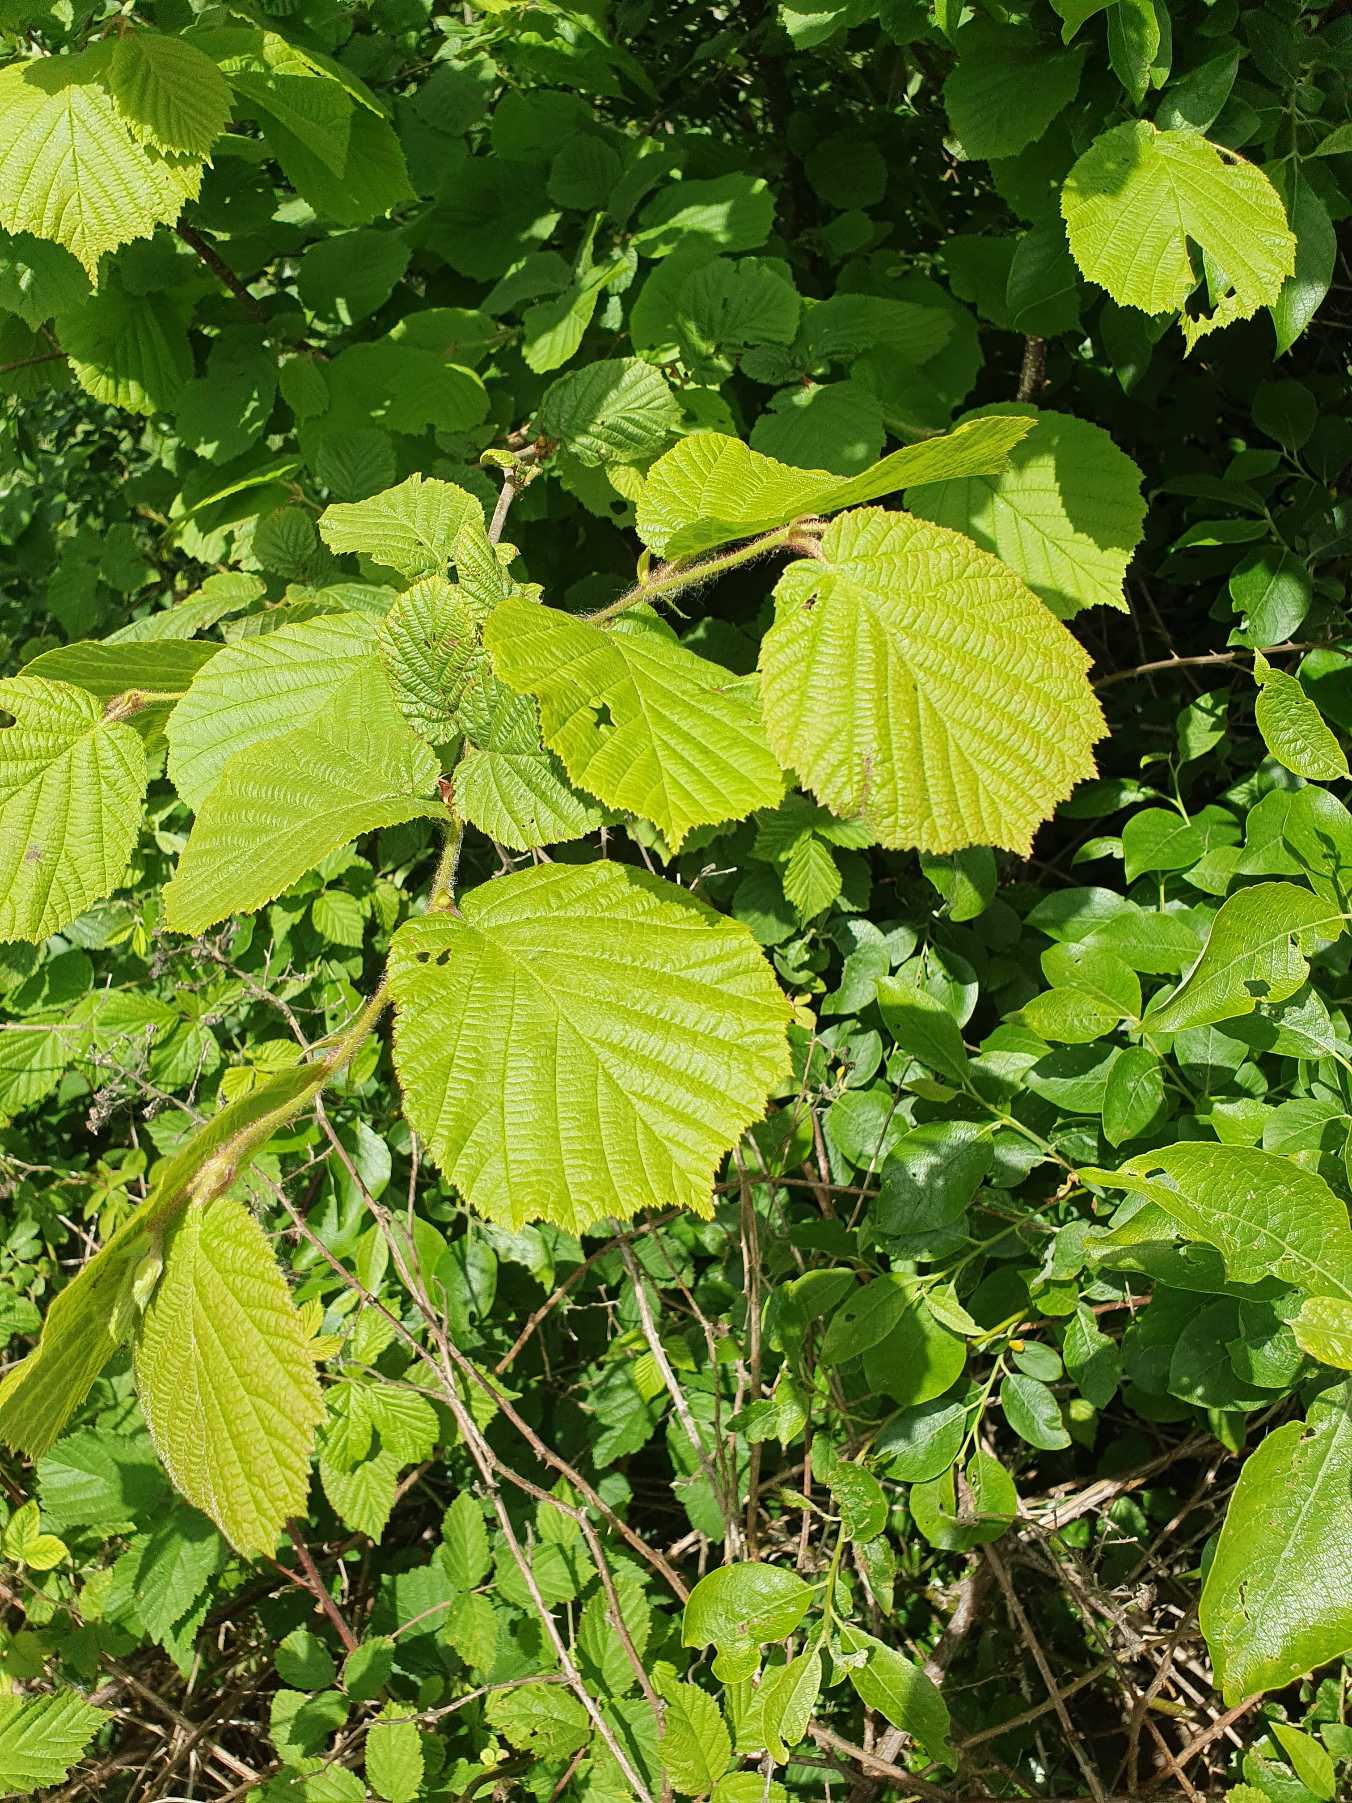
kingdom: Plantae
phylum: Tracheophyta
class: Magnoliopsida
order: Fagales
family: Betulaceae
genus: Corylus
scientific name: Corylus avellana
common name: Hassel
